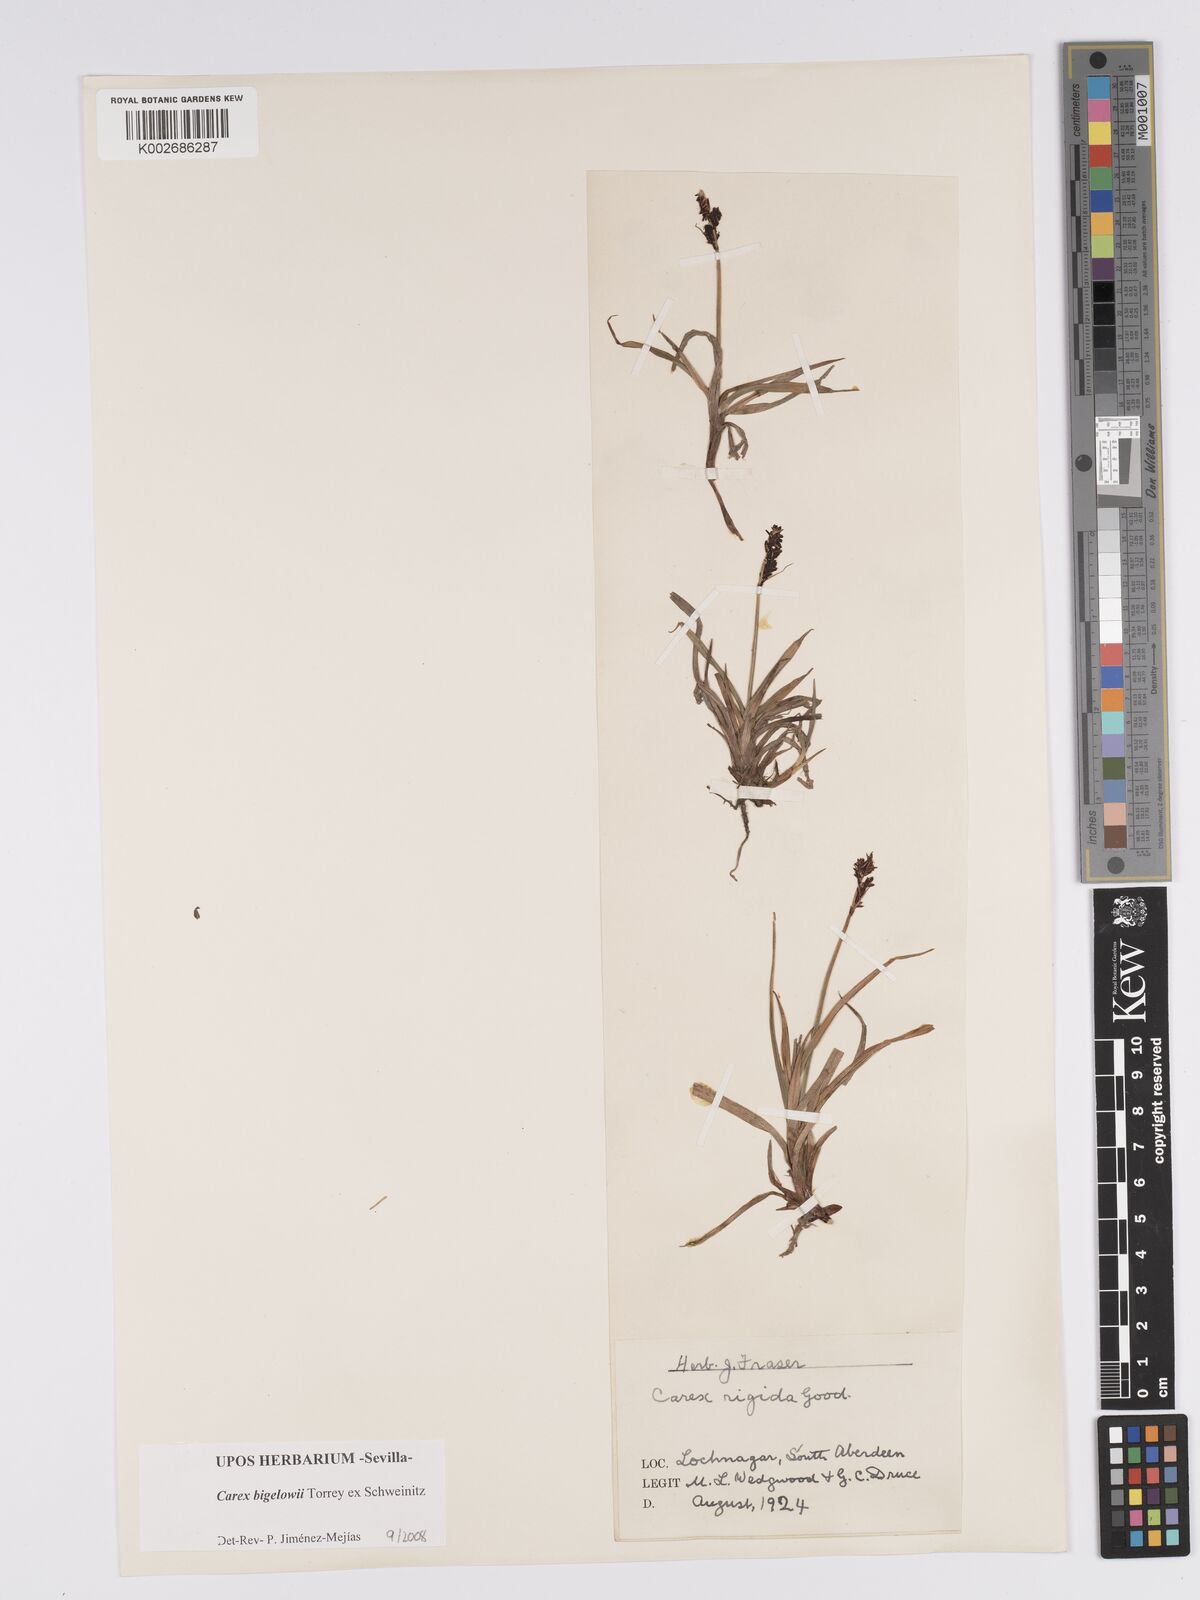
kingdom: Plantae
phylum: Tracheophyta
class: Liliopsida
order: Poales
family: Cyperaceae
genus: Carex
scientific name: Carex bigelowii
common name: Stiff sedge
